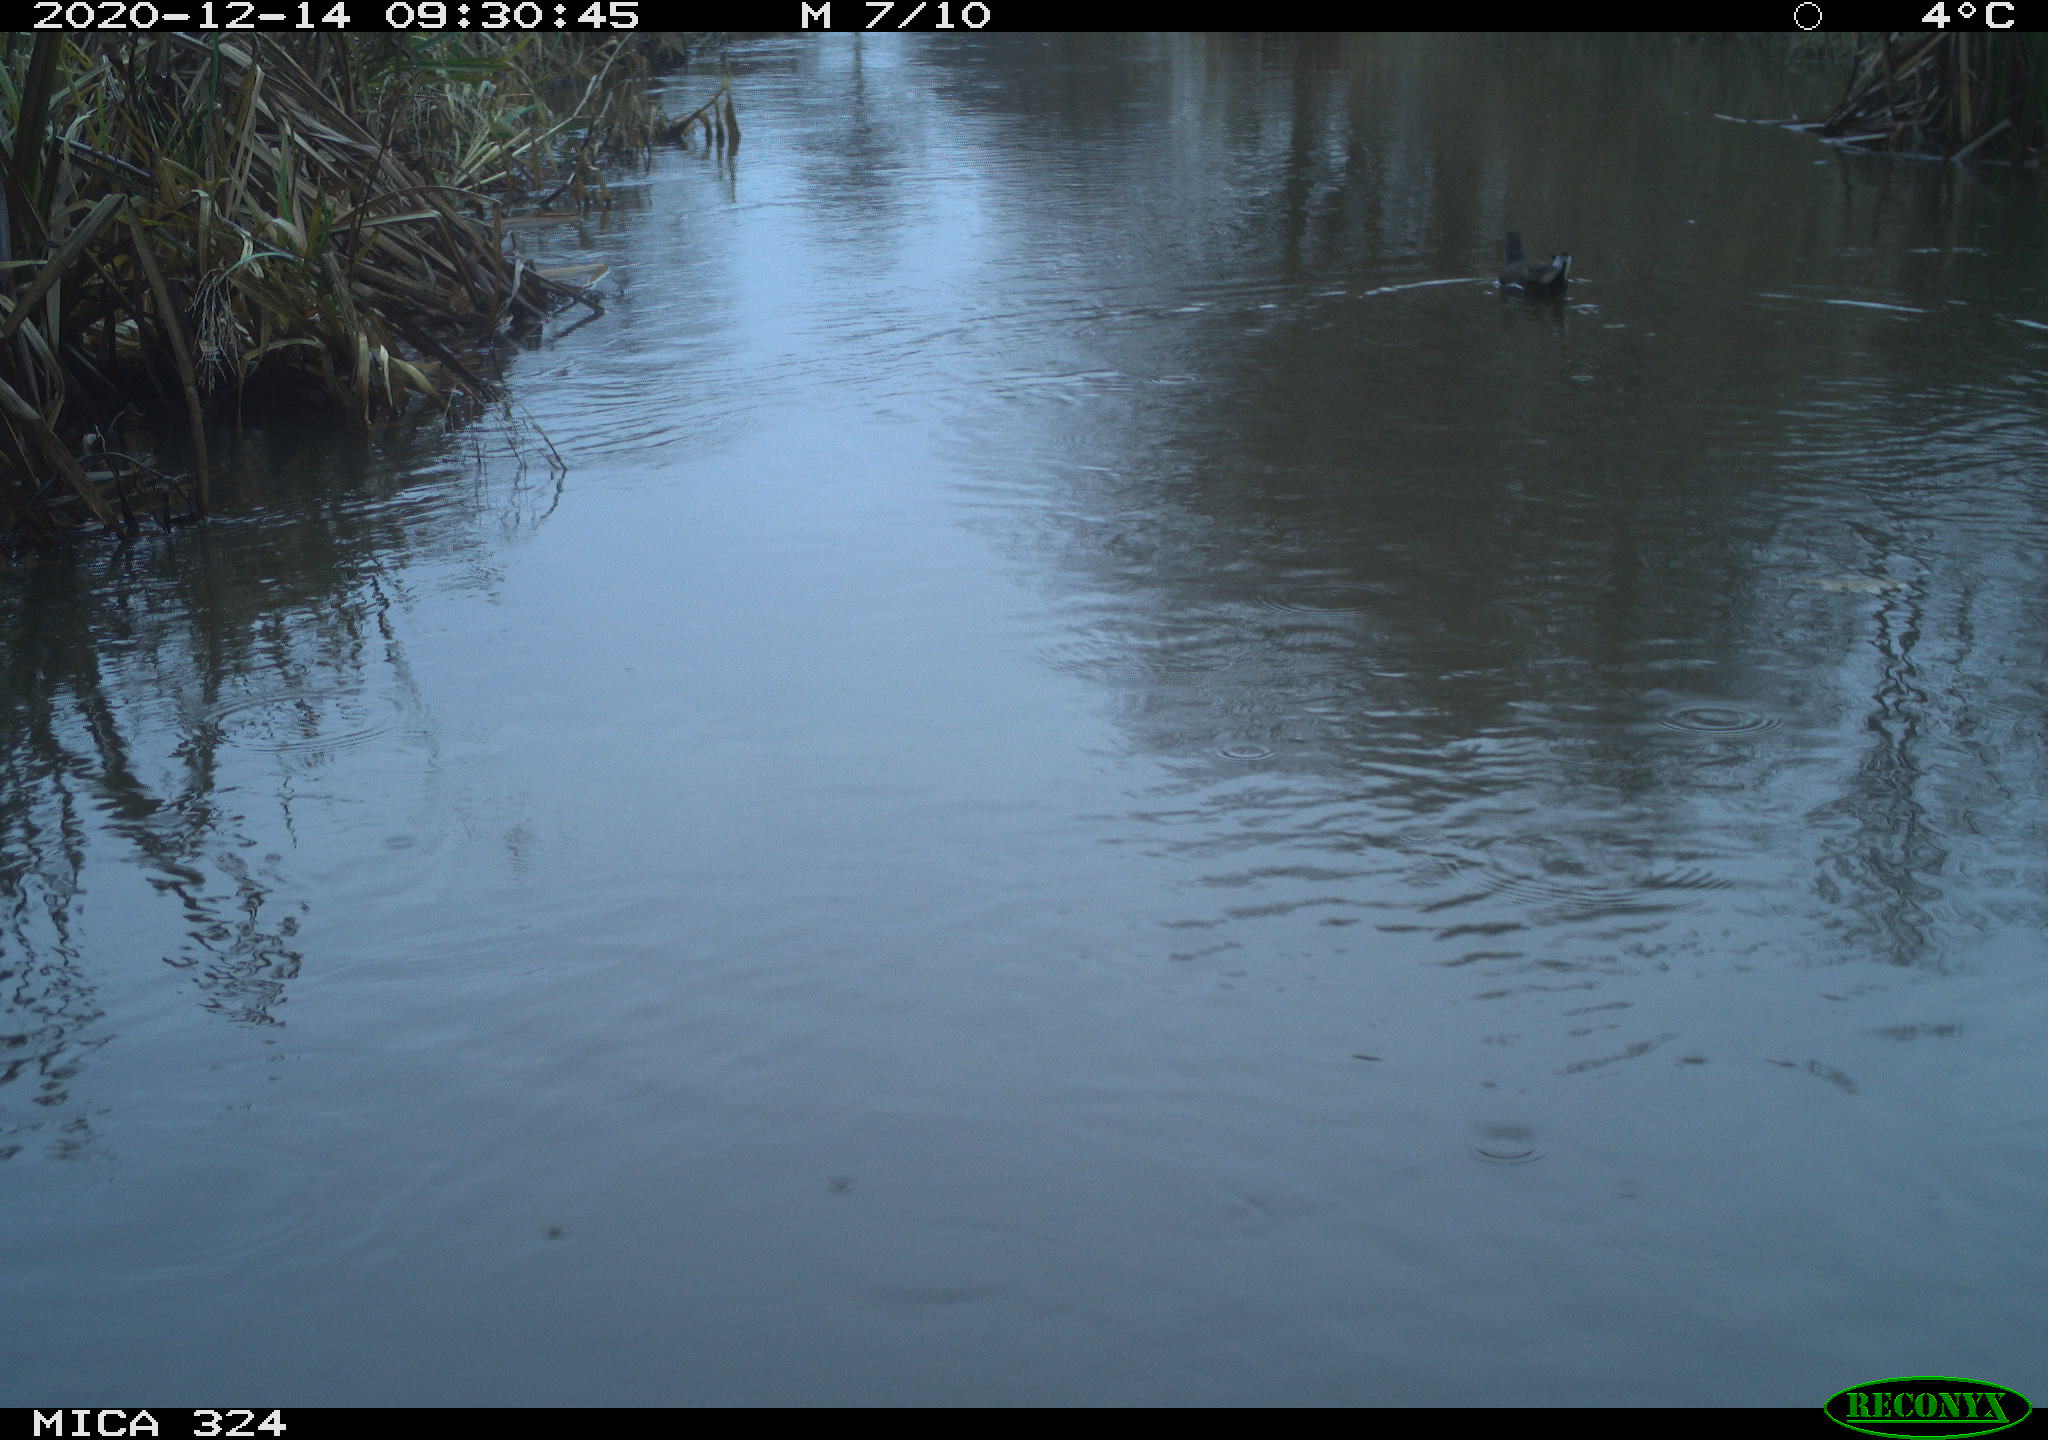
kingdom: Animalia
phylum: Chordata
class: Aves
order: Gruiformes
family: Rallidae
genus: Gallinula
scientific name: Gallinula chloropus
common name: Common moorhen
